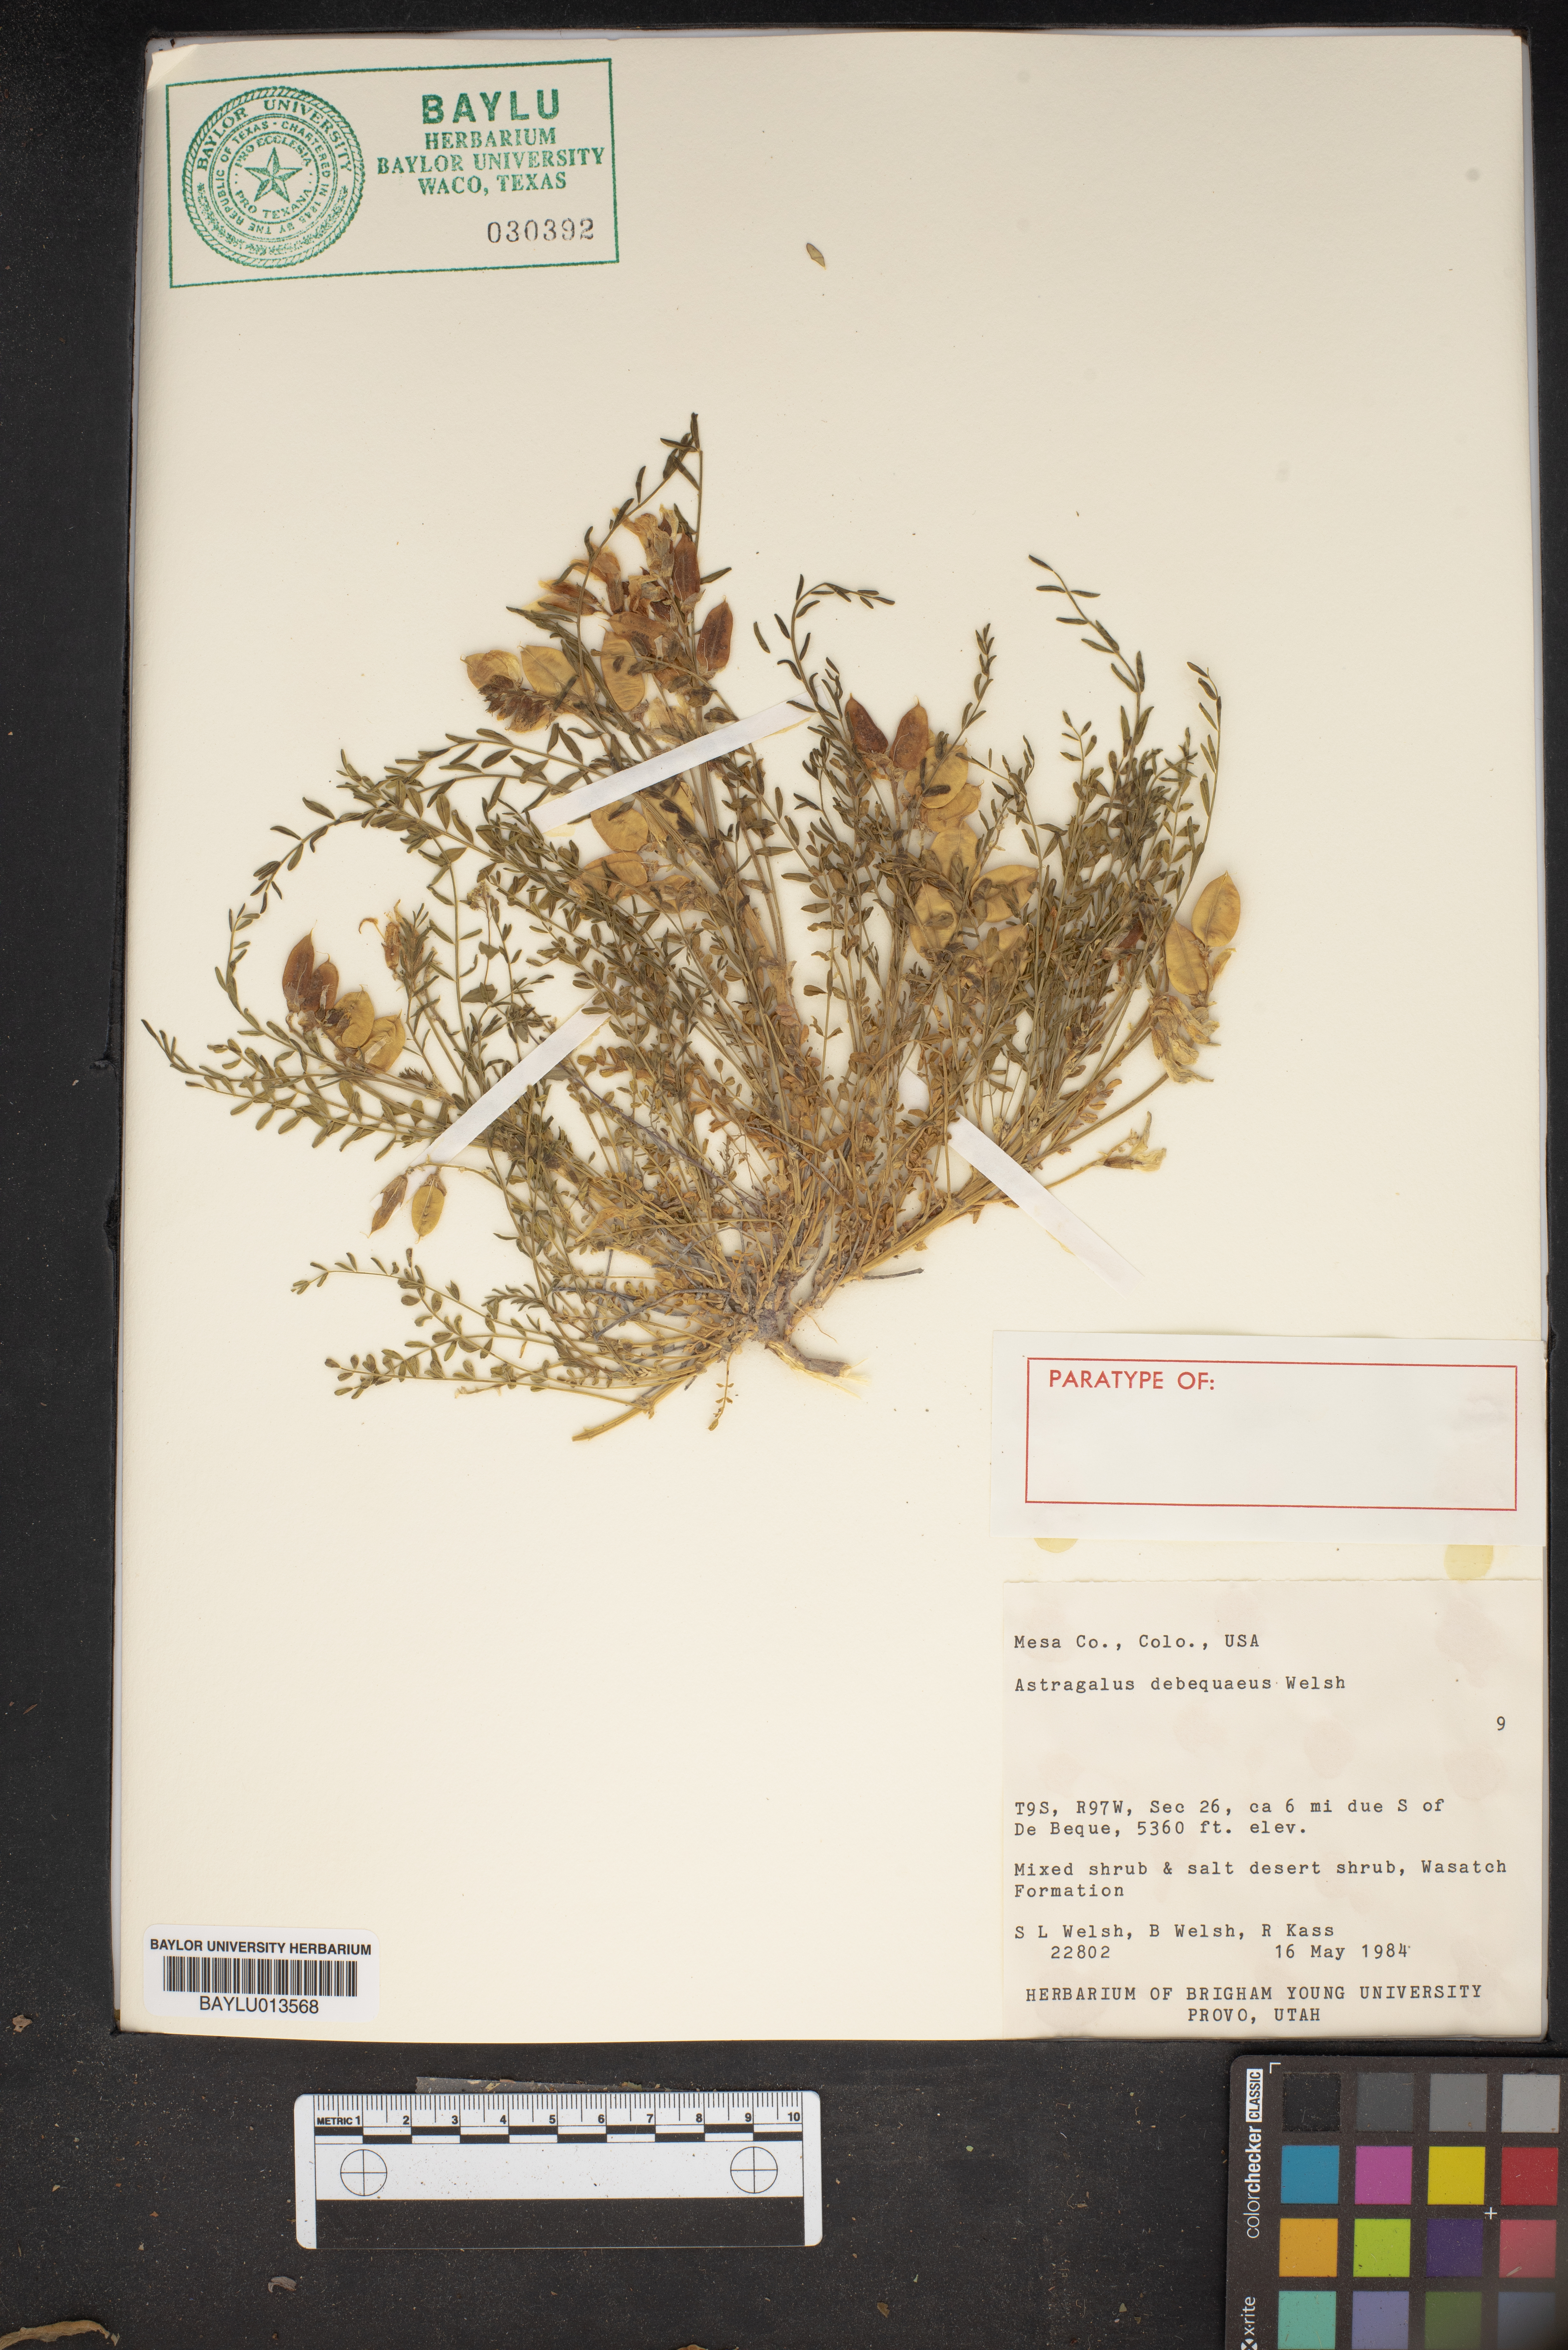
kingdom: Plantae
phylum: Tracheophyta
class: Magnoliopsida
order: Fabales
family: Fabaceae
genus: Astragalus
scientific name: Astragalus debequaeus
